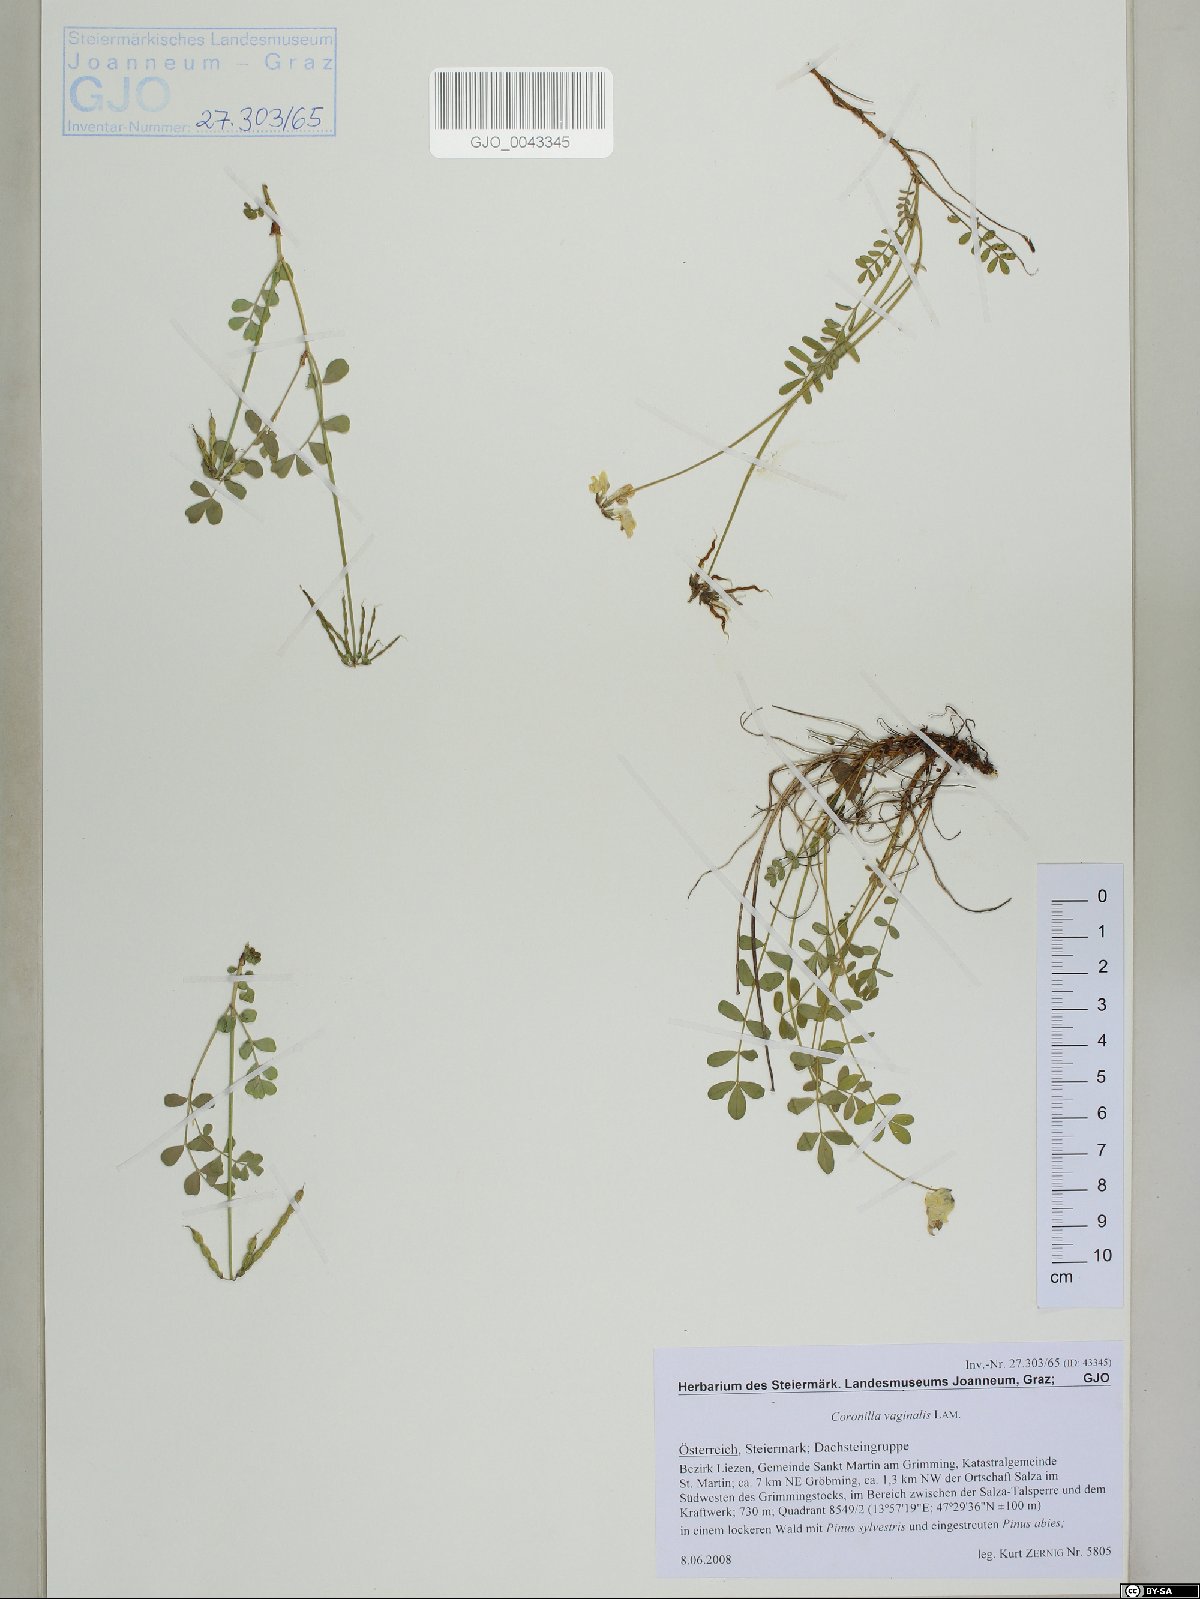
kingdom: Plantae
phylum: Tracheophyta
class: Magnoliopsida
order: Fabales
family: Fabaceae
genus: Coronilla
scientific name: Coronilla vaginalis
